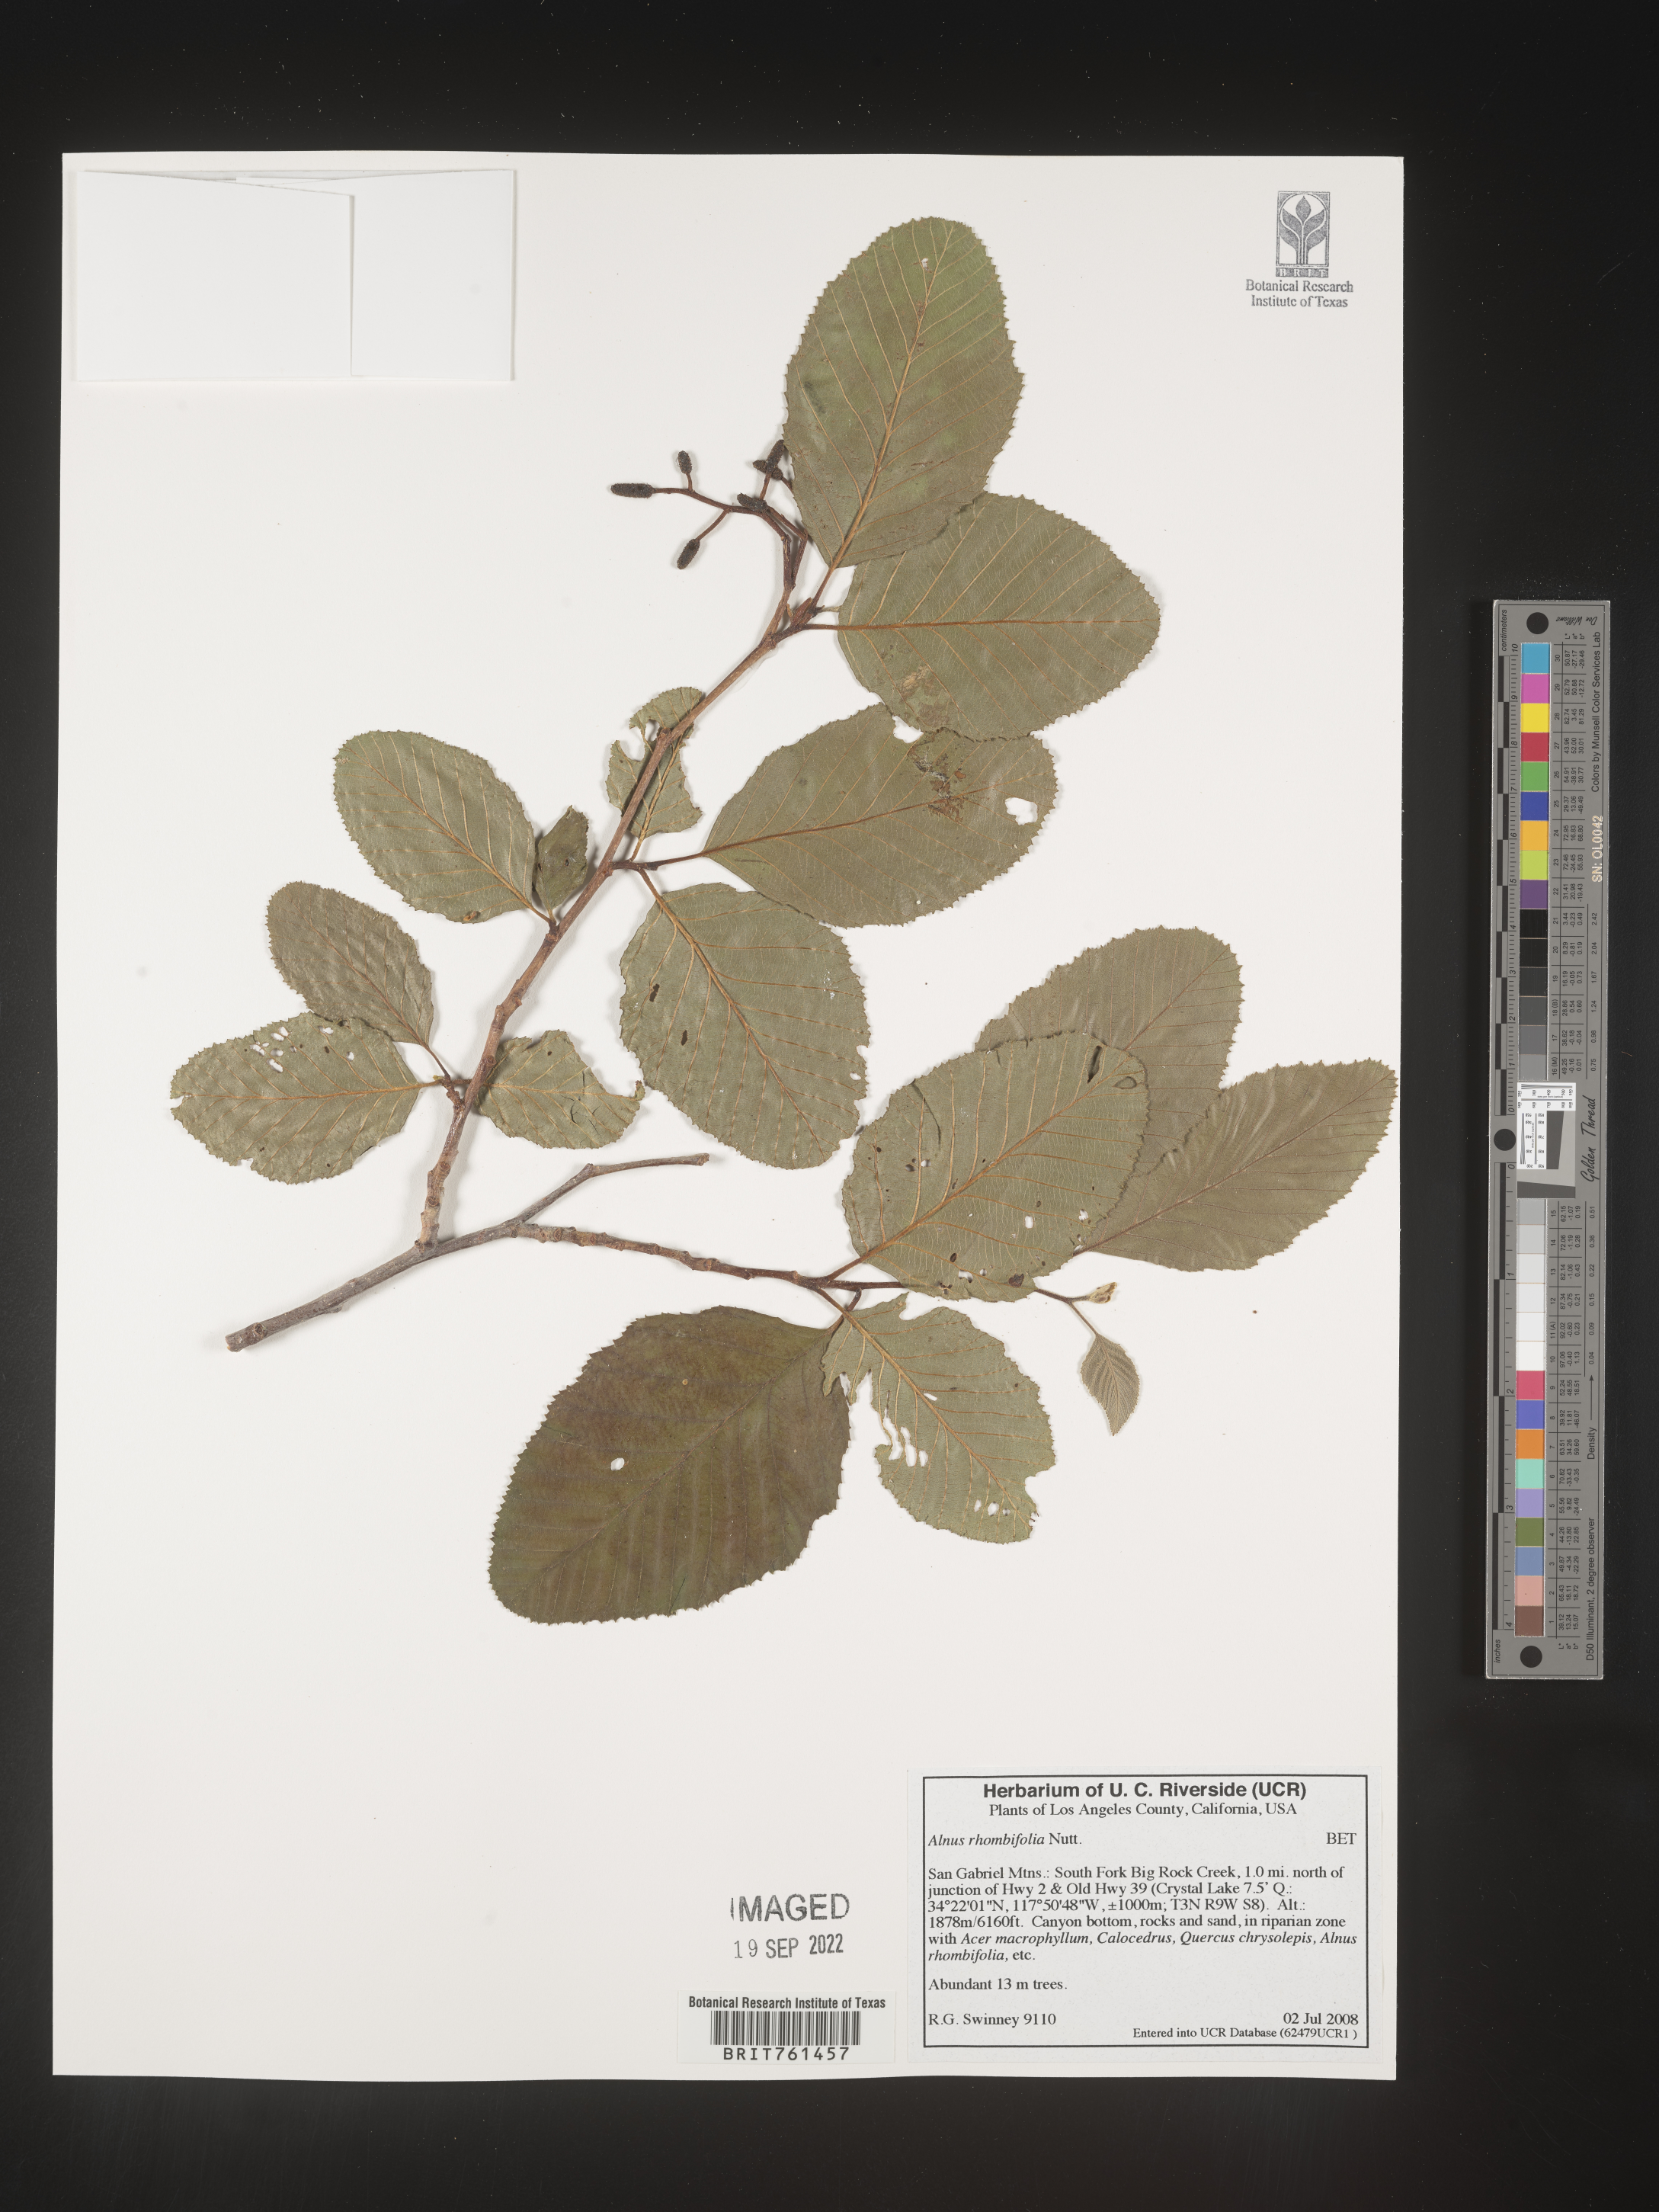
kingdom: Plantae
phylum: Tracheophyta
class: Magnoliopsida
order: Fagales
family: Betulaceae
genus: Alnus
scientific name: Alnus rhombifolia
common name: California alder
